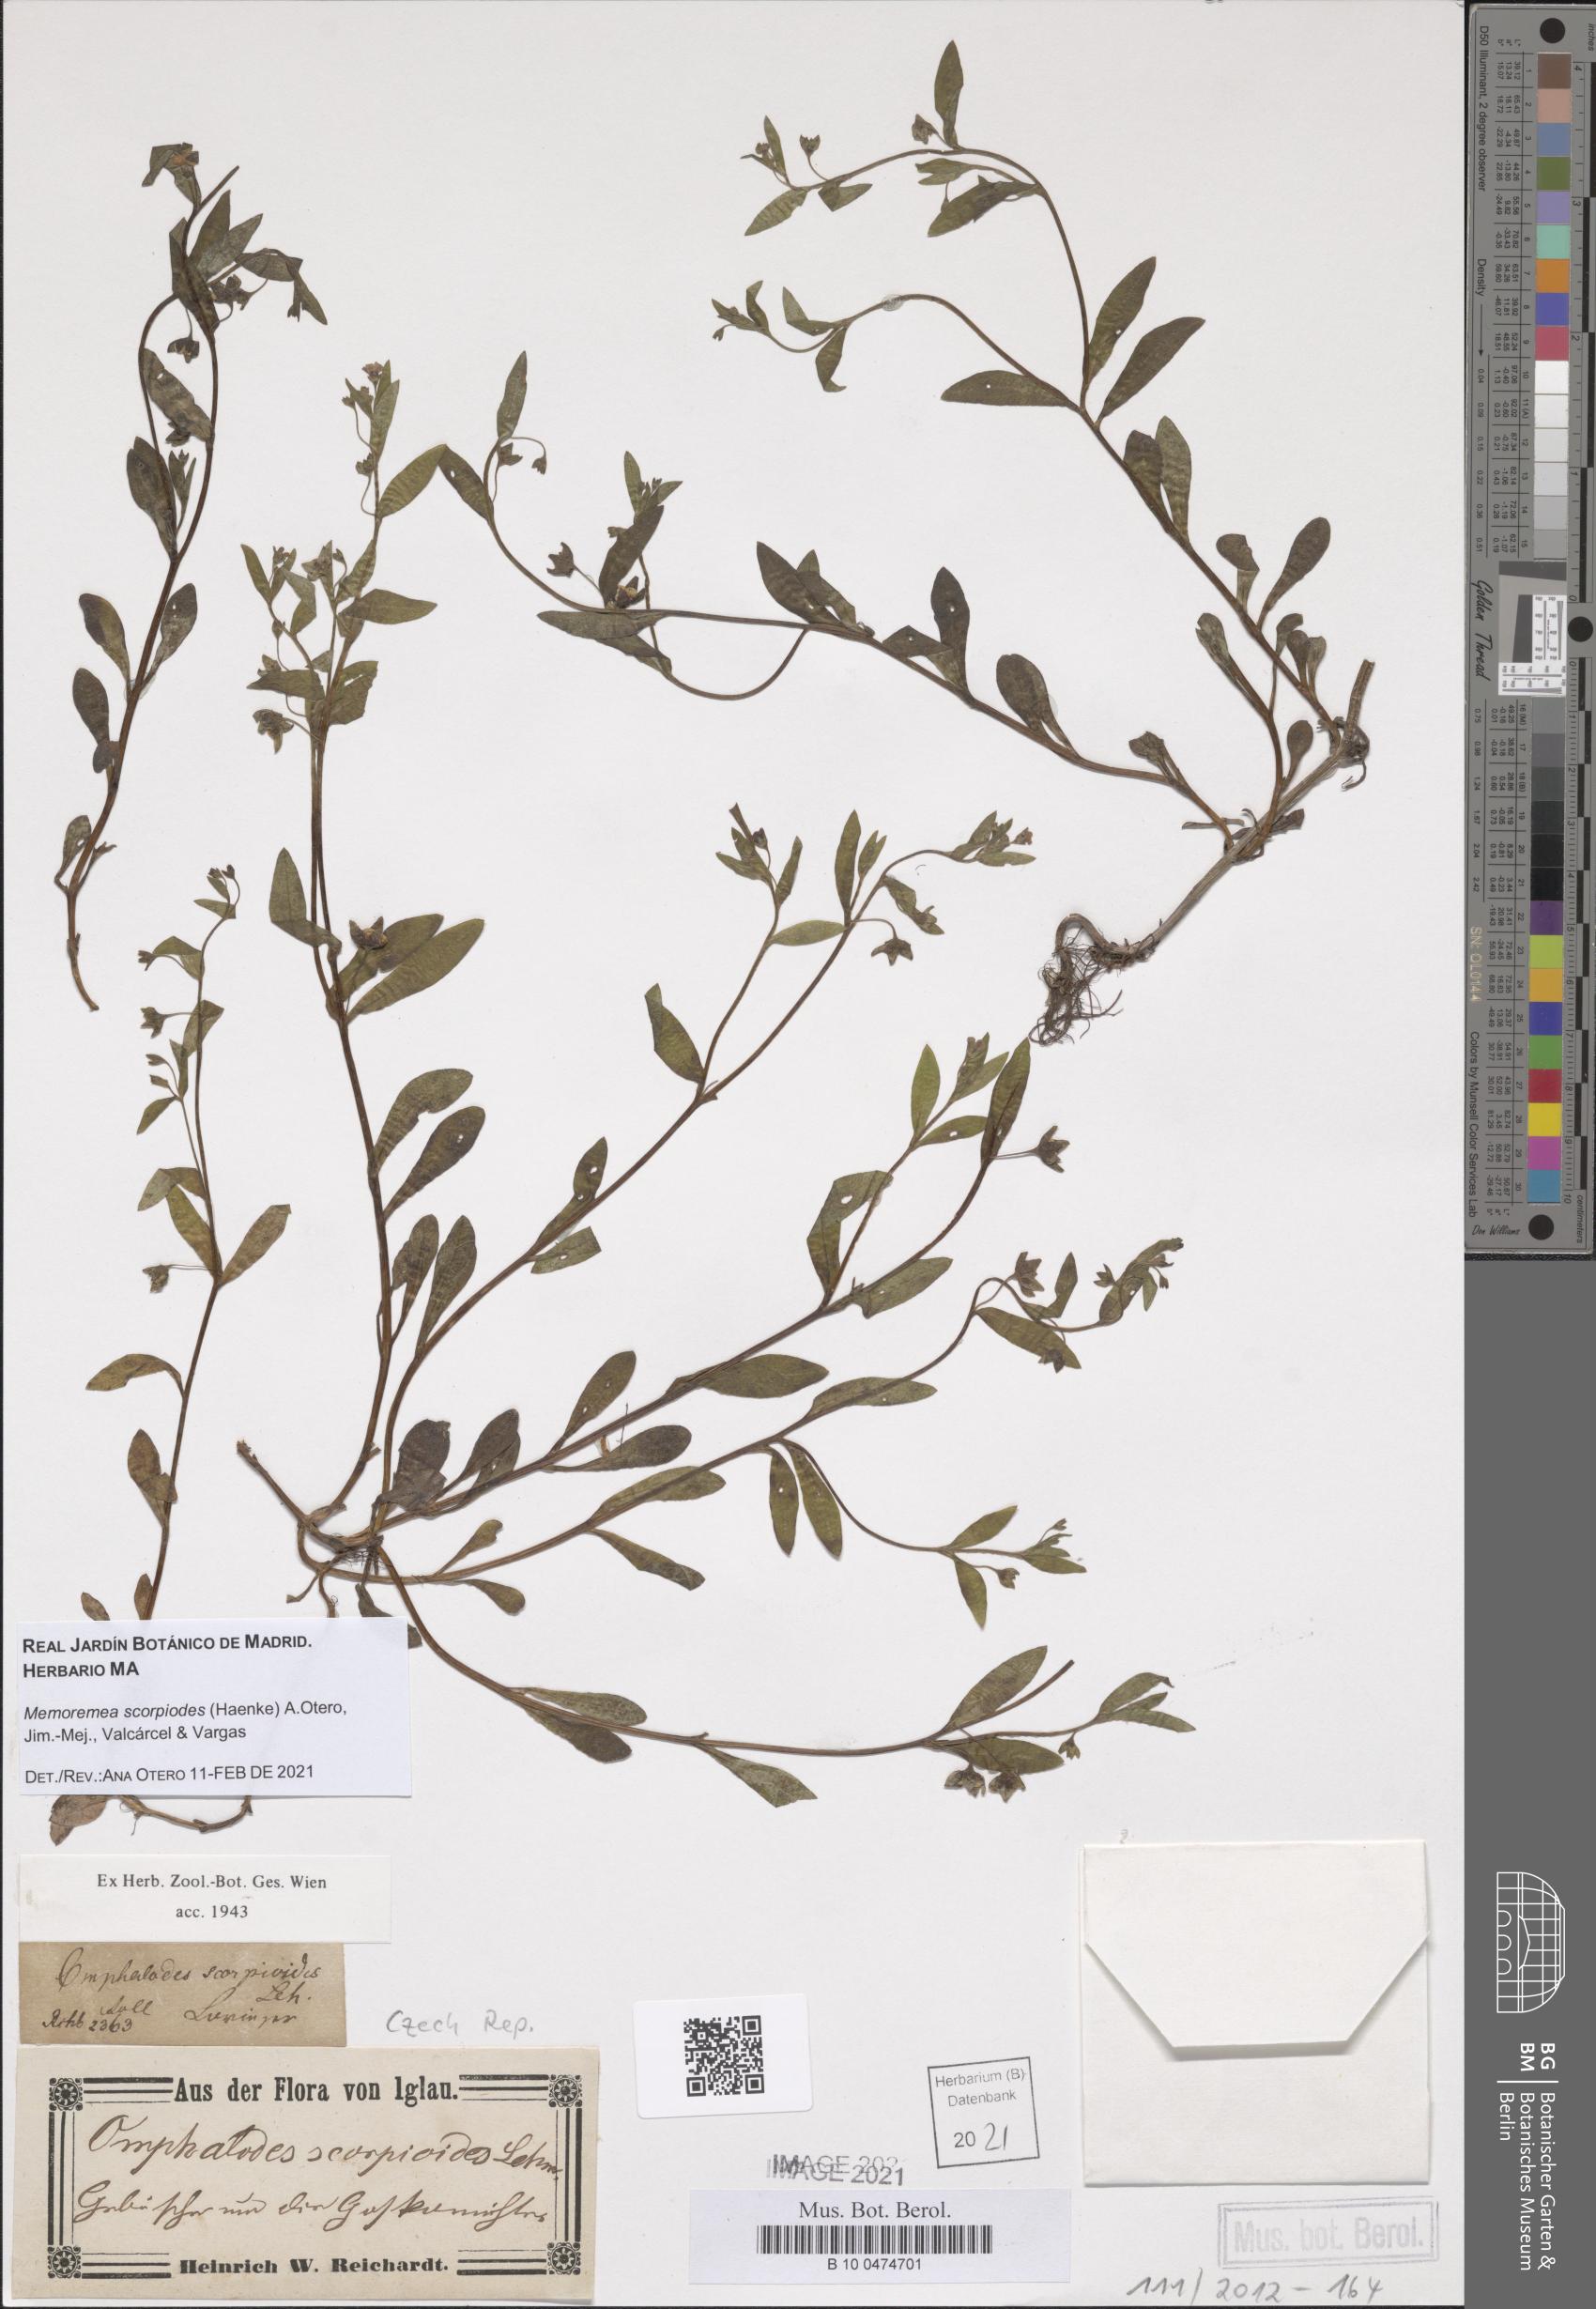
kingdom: Plantae
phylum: Tracheophyta
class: Magnoliopsida
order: Boraginales
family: Boraginaceae
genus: Memoremea
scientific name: Memoremea scorpioides
